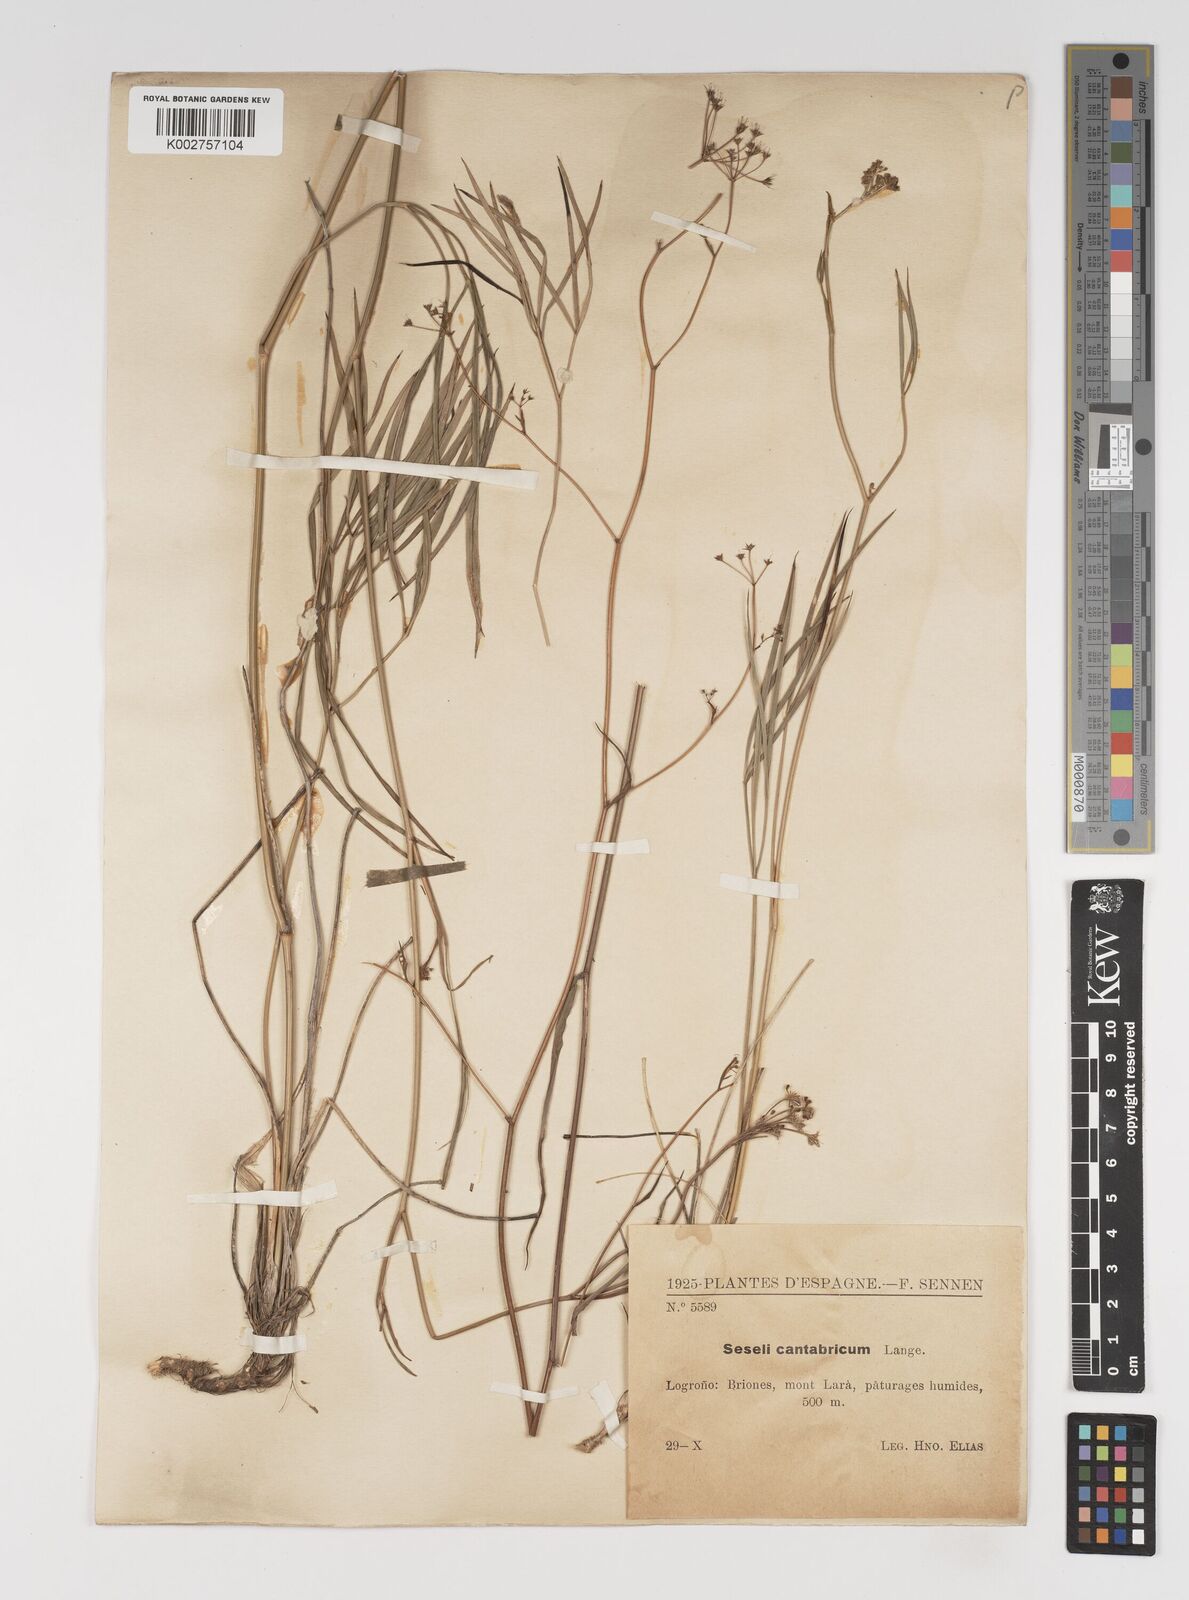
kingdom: Plantae
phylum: Tracheophyta
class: Magnoliopsida
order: Apiales
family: Apiaceae
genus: Seseli
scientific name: Seseli montanum
